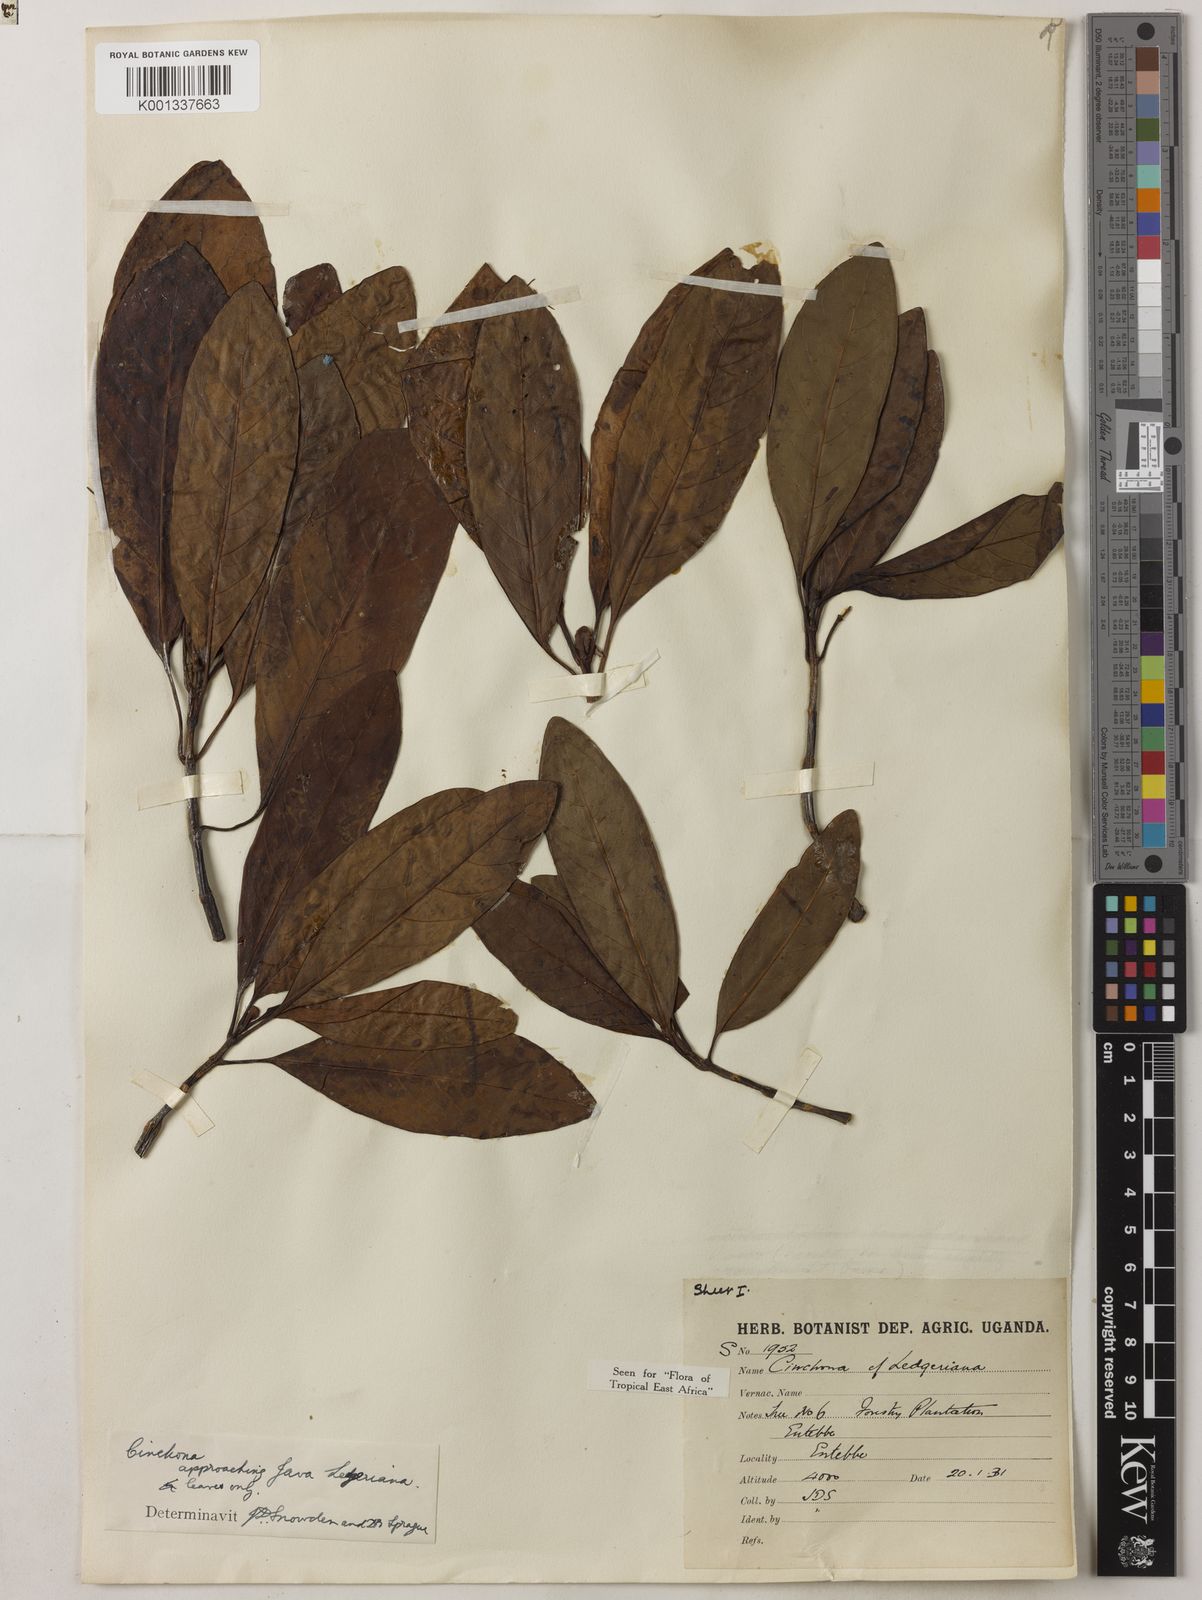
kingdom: Plantae
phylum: Tracheophyta
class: Magnoliopsida
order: Gentianales
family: Rubiaceae
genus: Cinchona
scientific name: Cinchona calisaya
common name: Ledgerbark
